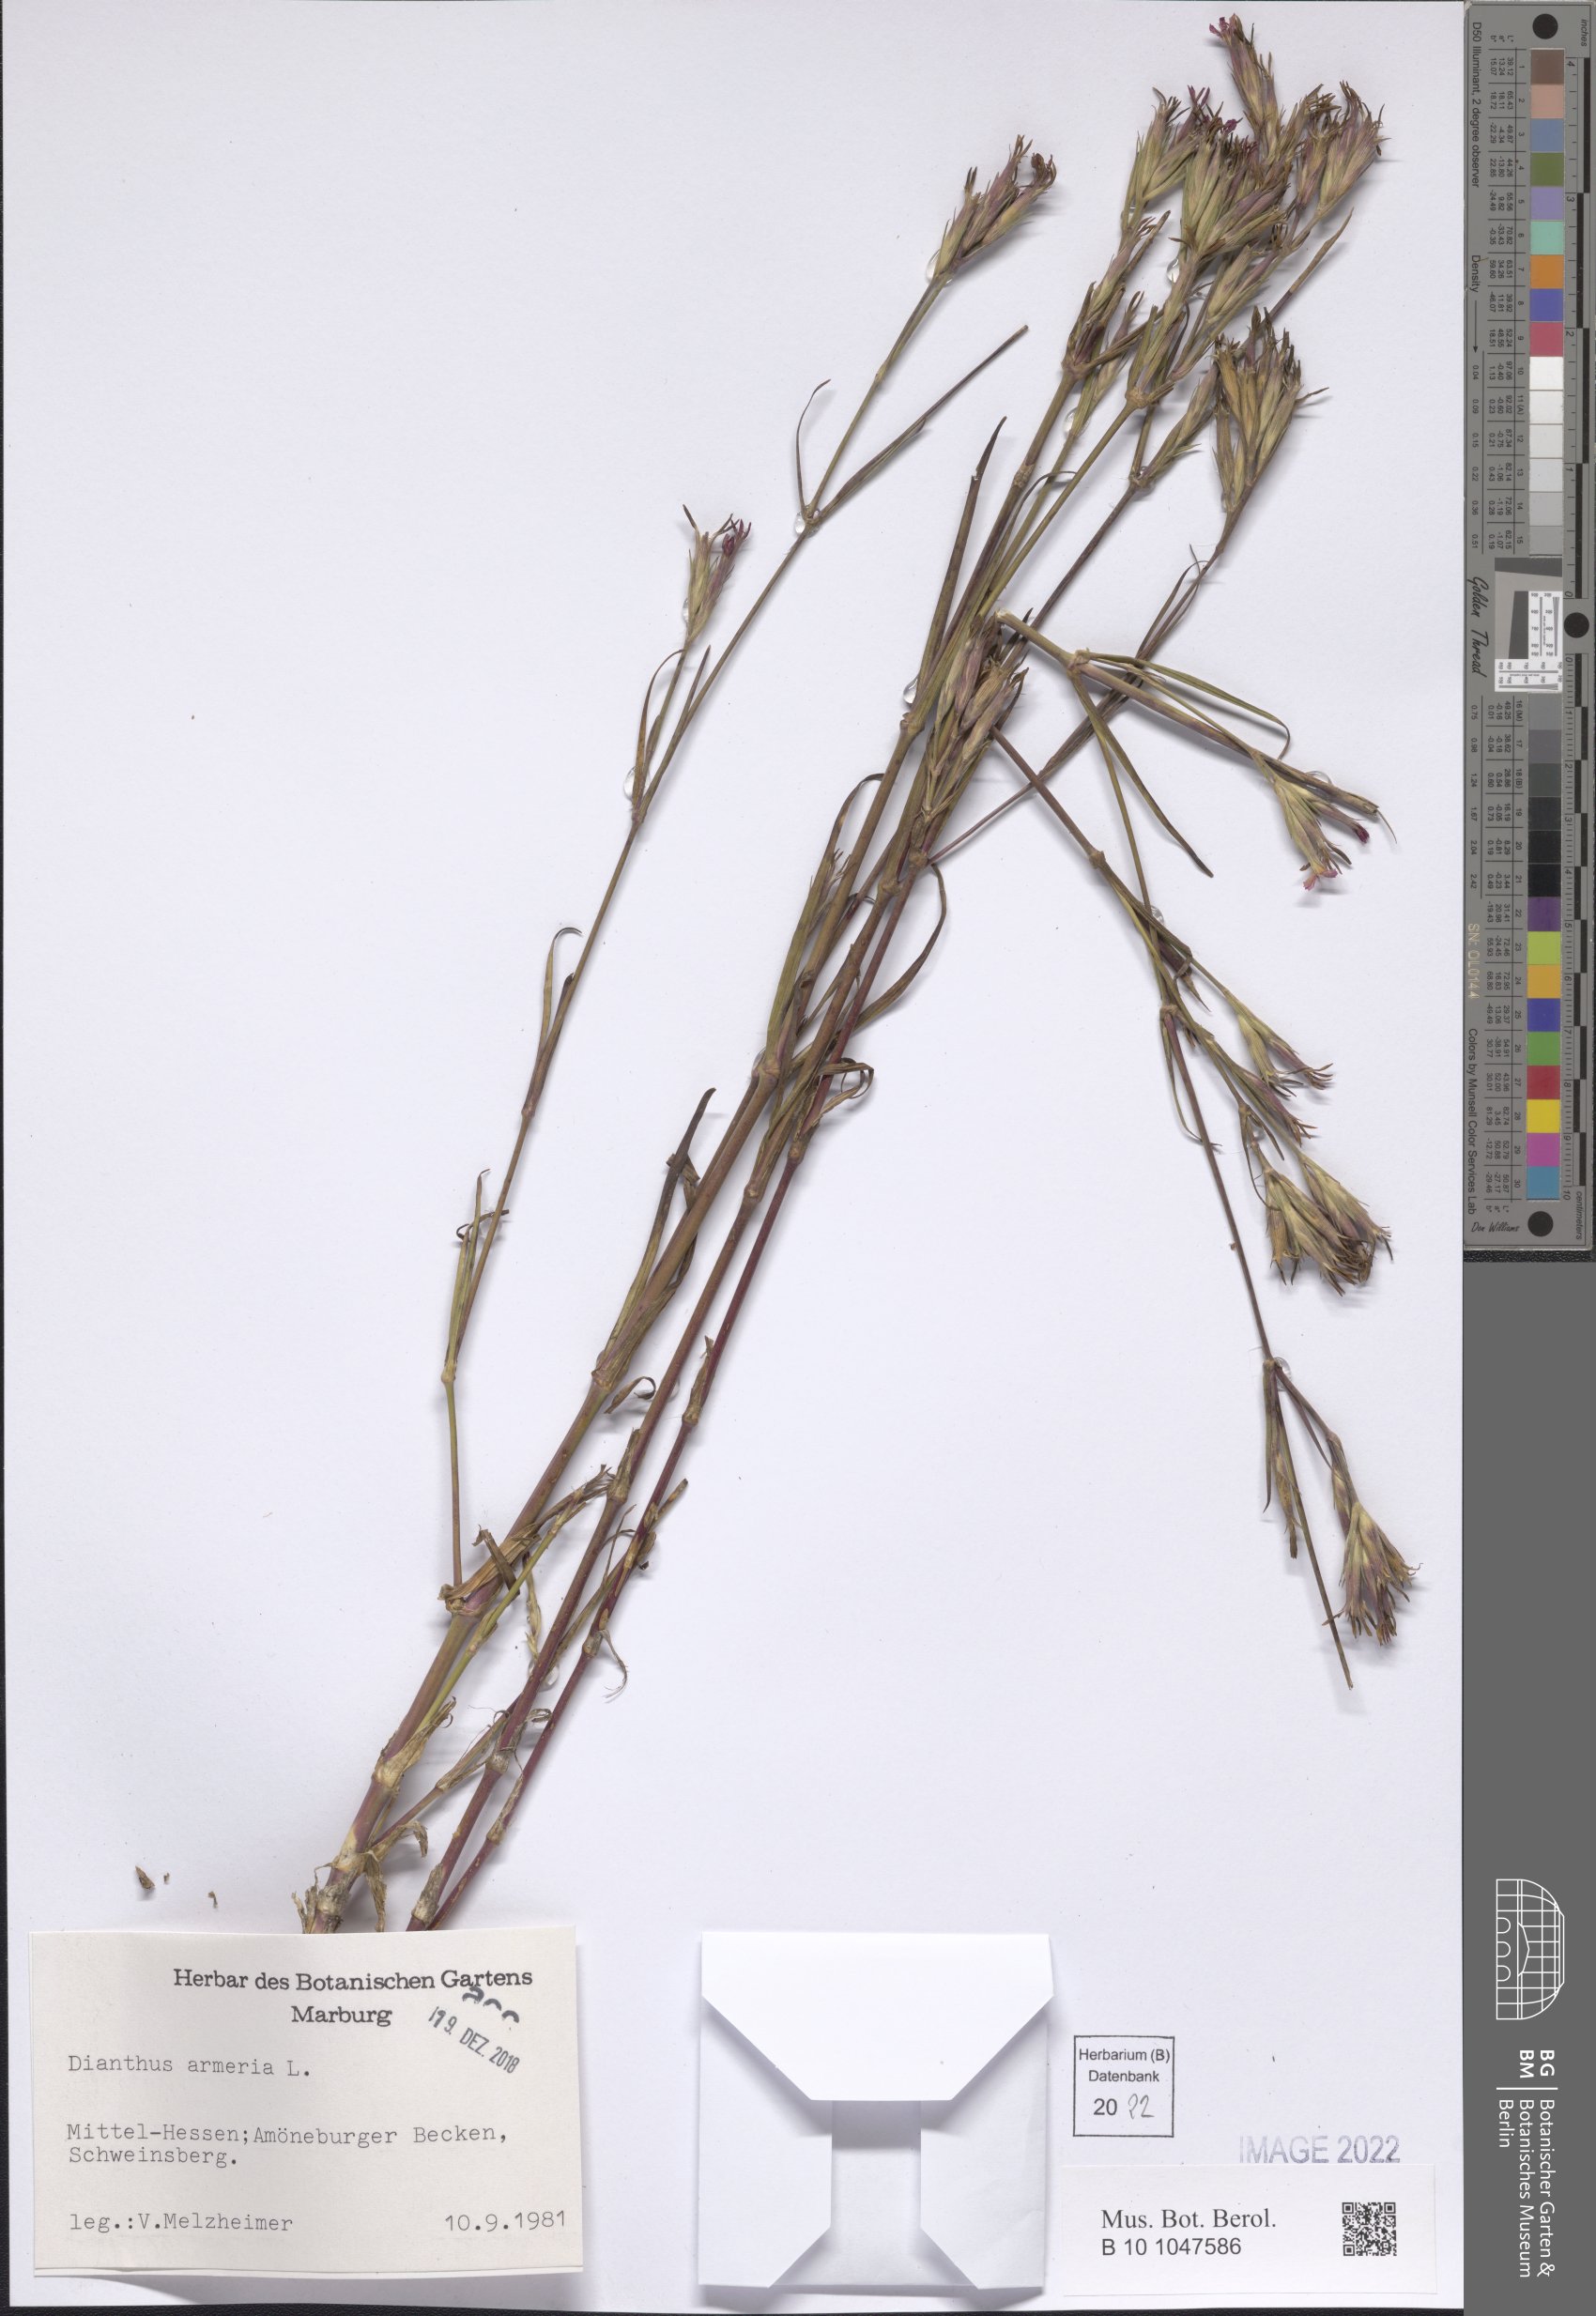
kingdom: Plantae
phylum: Tracheophyta
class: Magnoliopsida
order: Caryophyllales
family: Caryophyllaceae
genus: Dianthus
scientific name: Dianthus armeria
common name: Deptford pink
